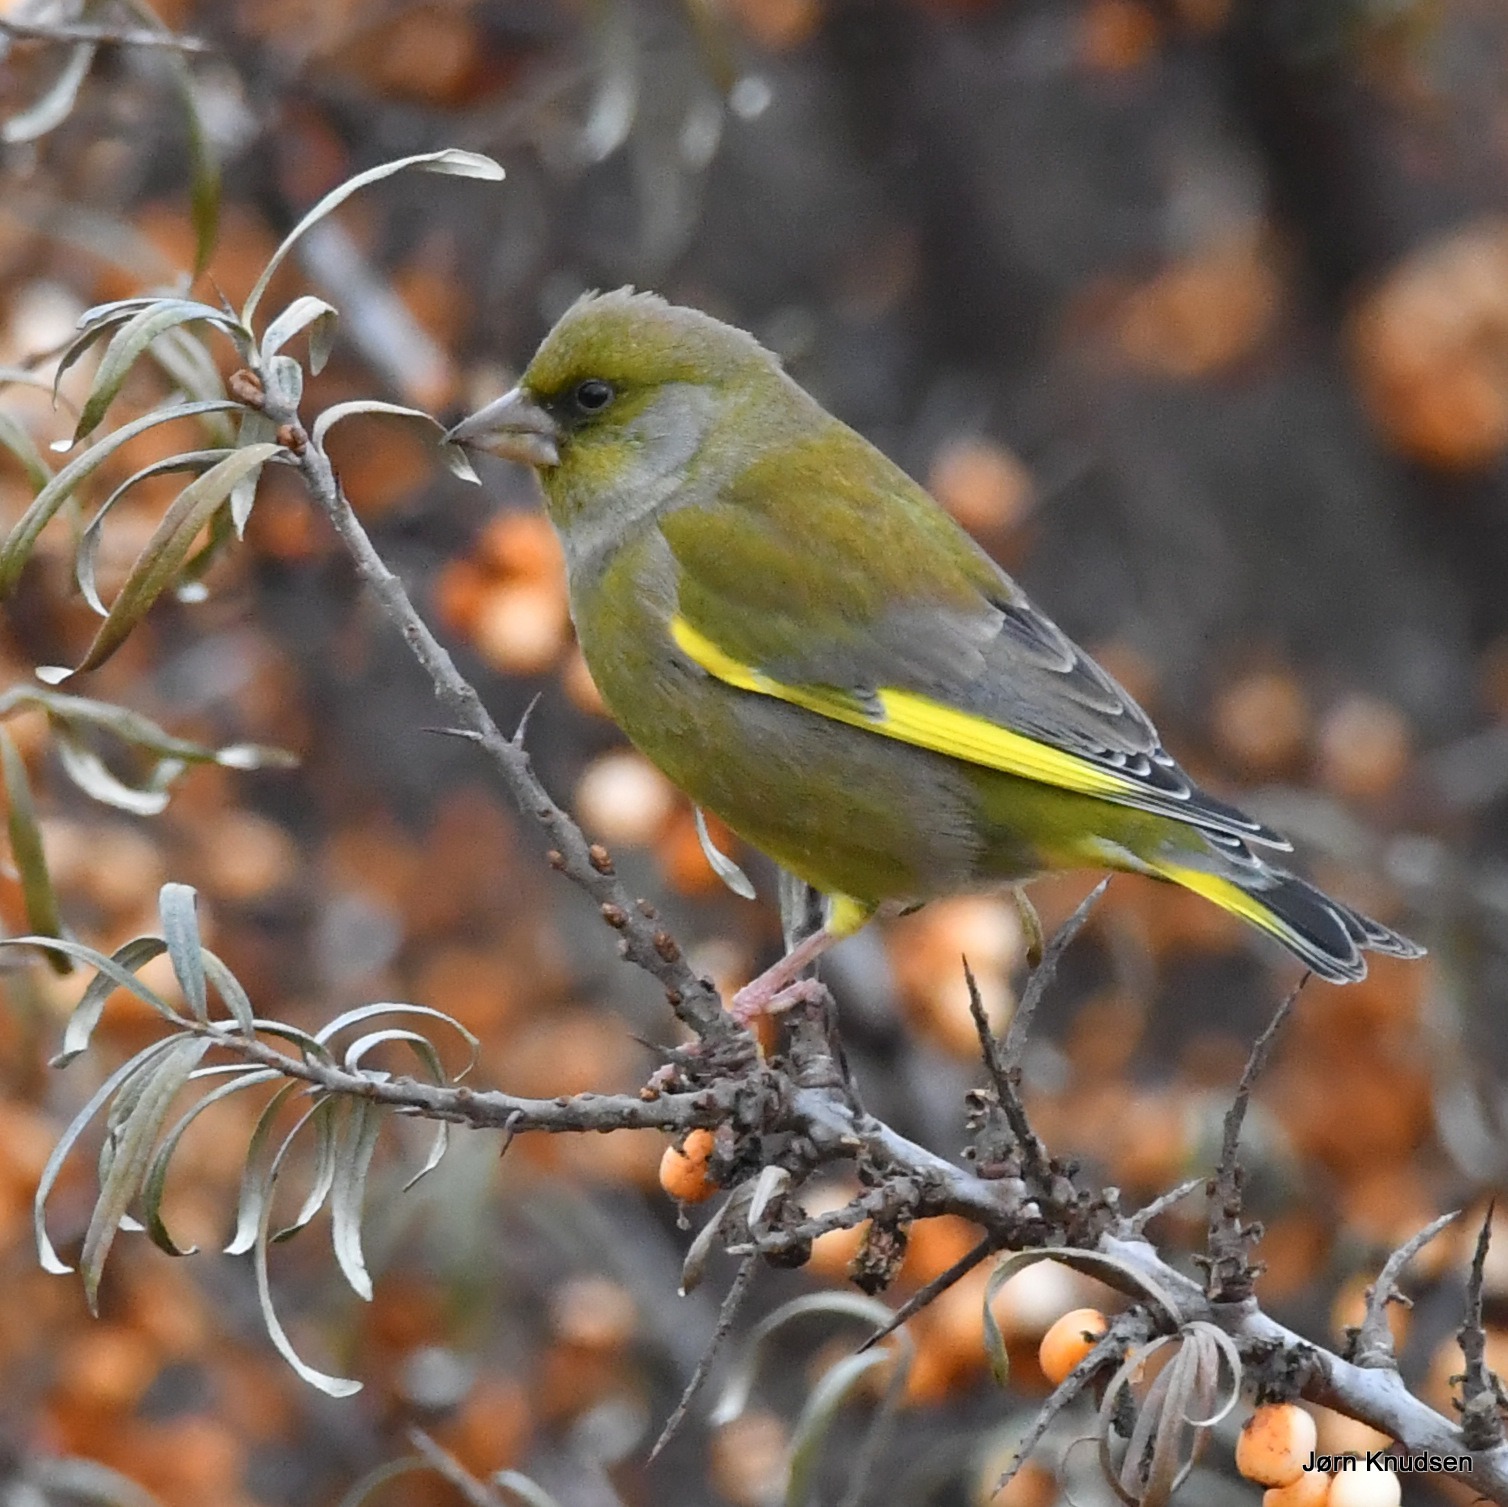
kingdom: Plantae
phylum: Tracheophyta
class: Liliopsida
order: Poales
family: Poaceae
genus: Chloris
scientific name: Chloris chloris
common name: Grønirisk
